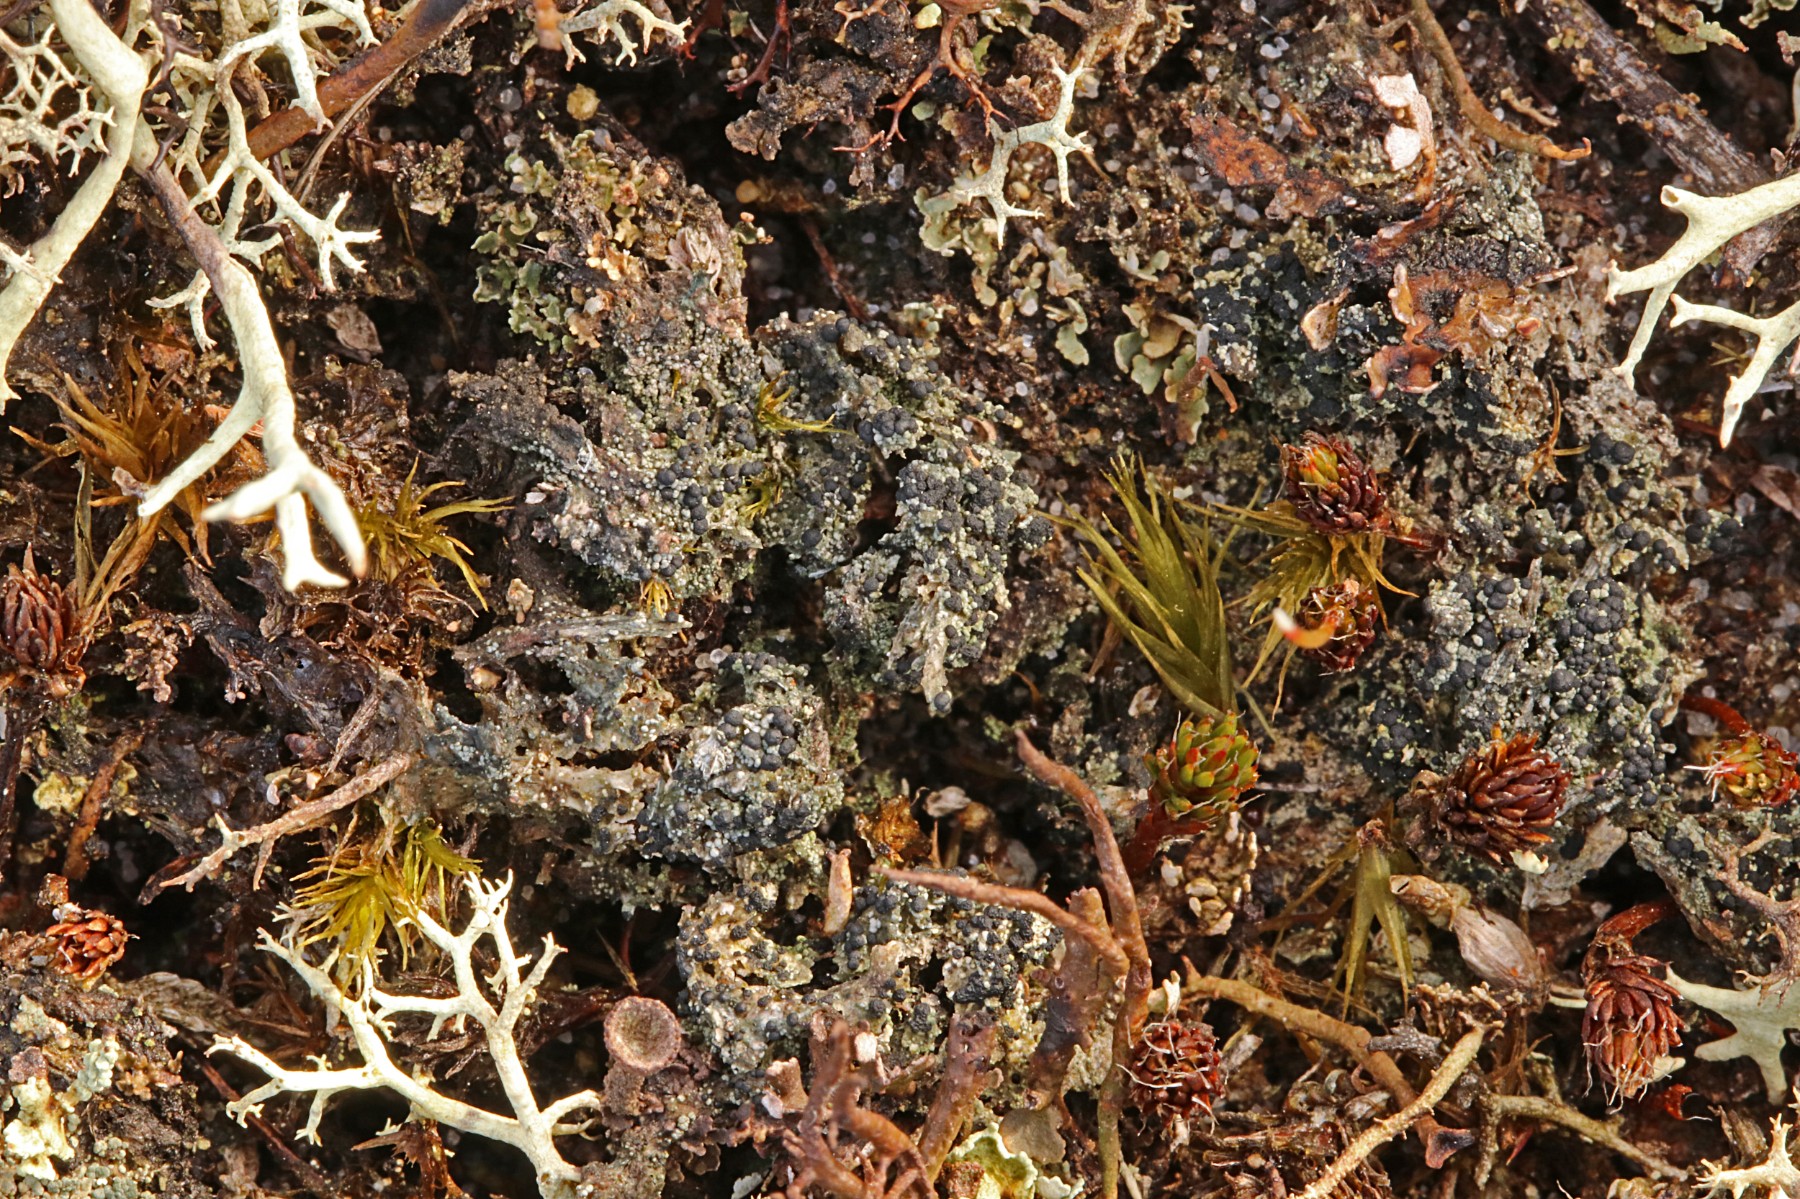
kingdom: Fungi
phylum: Ascomycota
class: Lecanoromycetes
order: Lecanorales
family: Byssolomataceae
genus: Micarea
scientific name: Micarea lignaria
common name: tørve-knaplav
